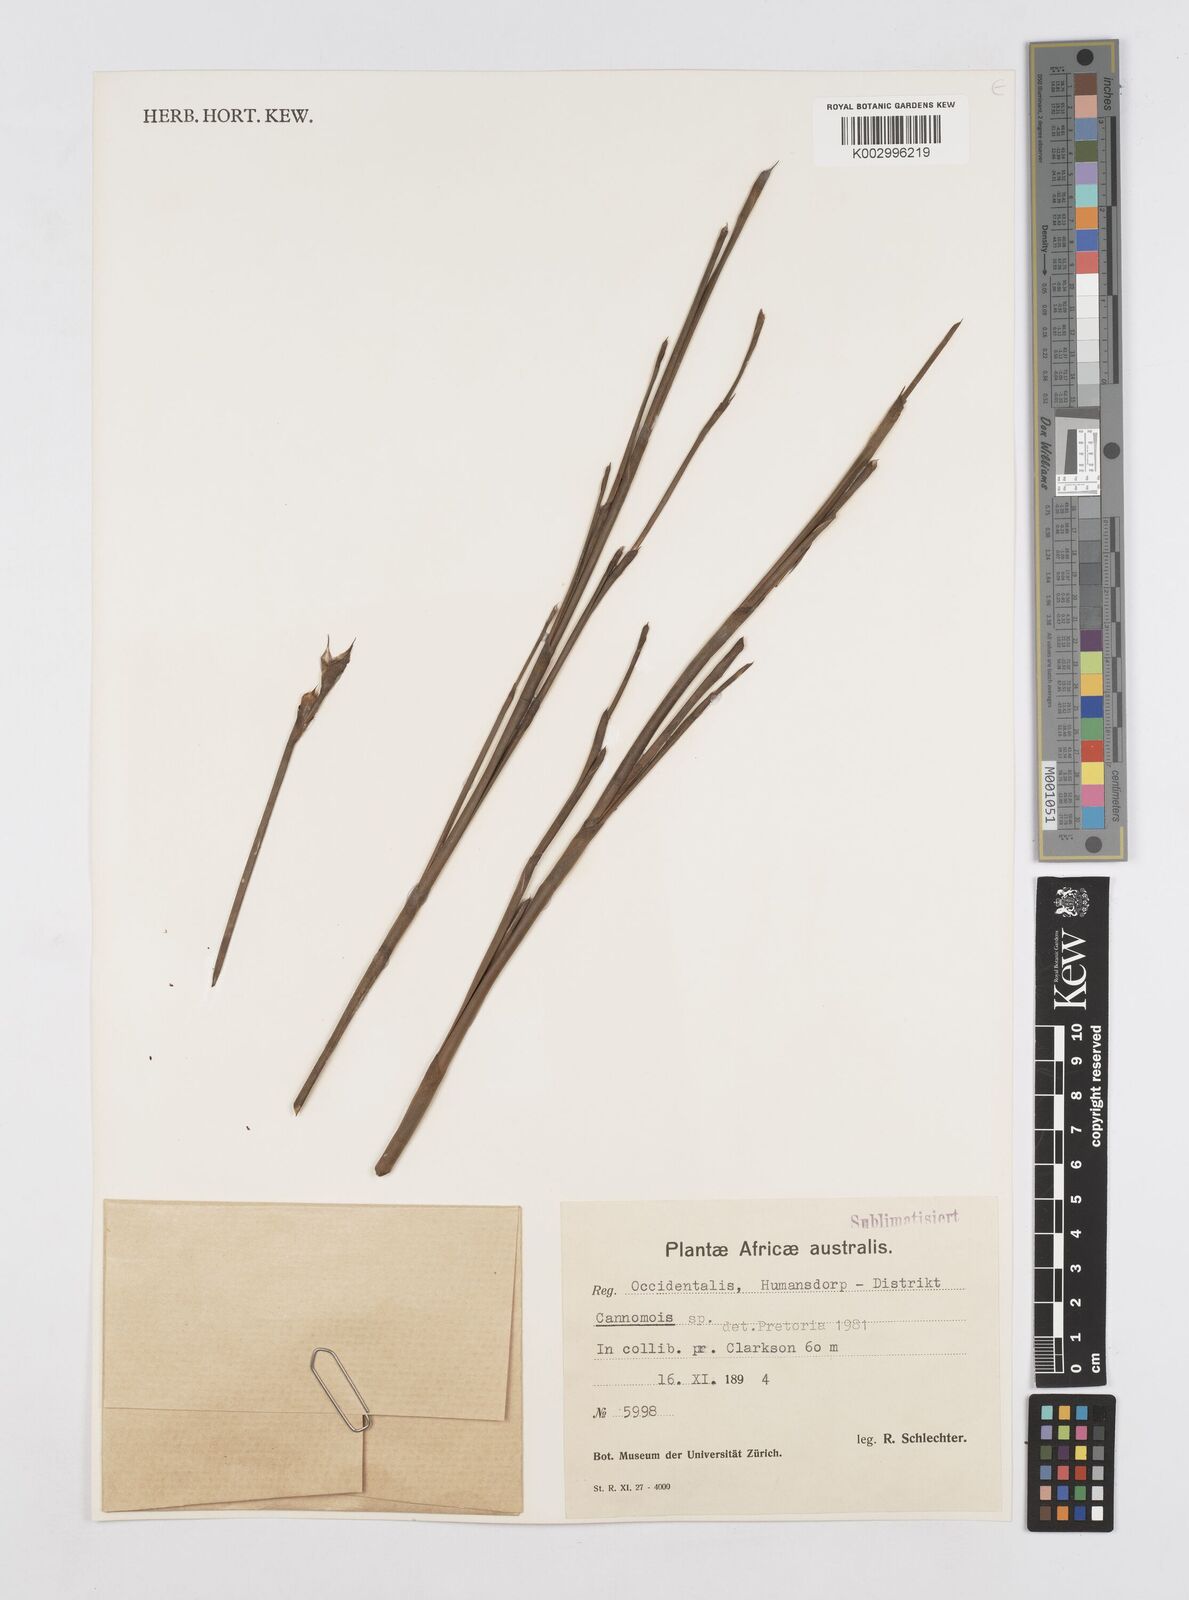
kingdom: Plantae
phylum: Tracheophyta
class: Liliopsida
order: Poales
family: Restionaceae
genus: Cannomois
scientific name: Cannomois
